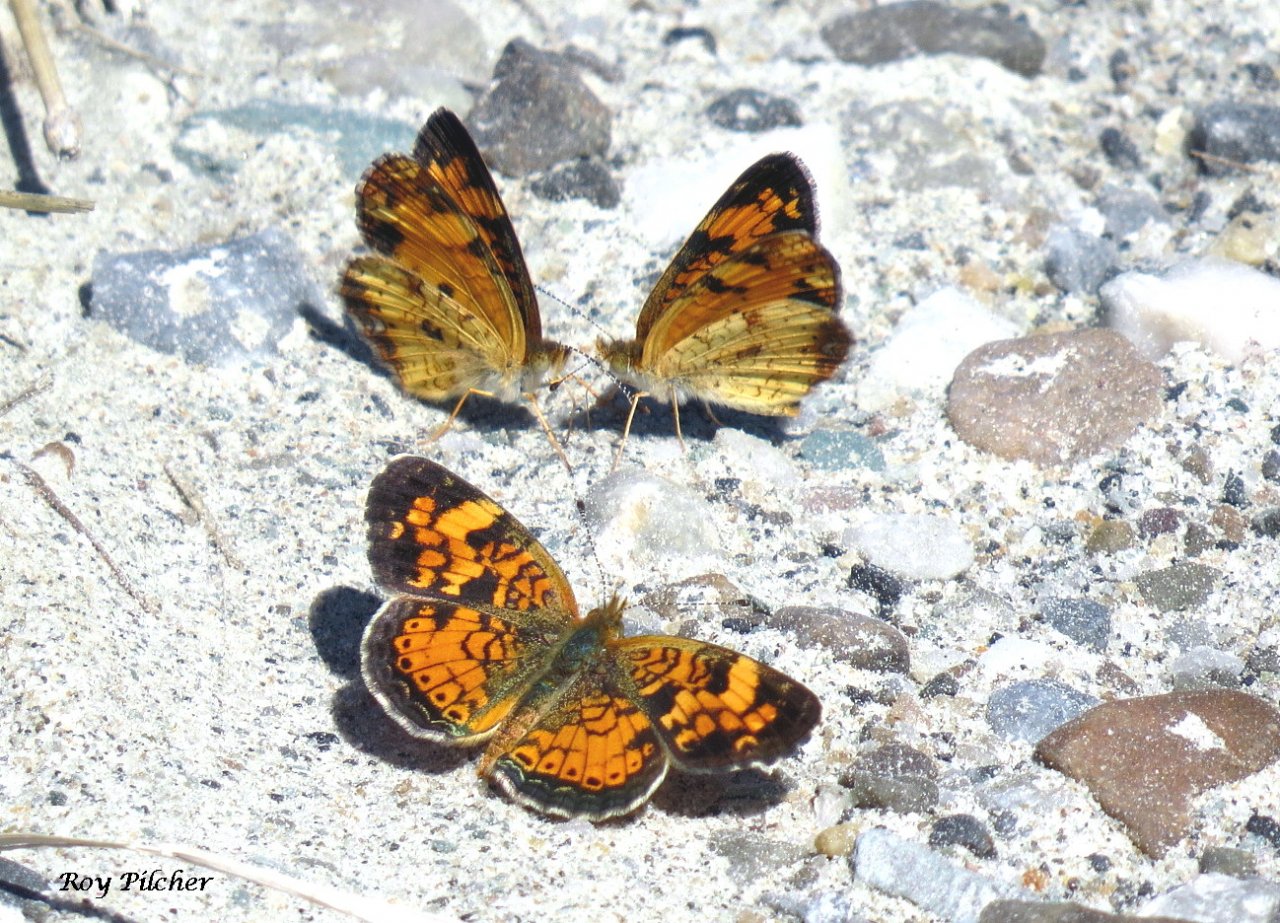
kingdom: Animalia
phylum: Arthropoda
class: Insecta
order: Lepidoptera
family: Nymphalidae
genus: Phyciodes
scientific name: Phyciodes tharos
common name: Pearl Crescent
